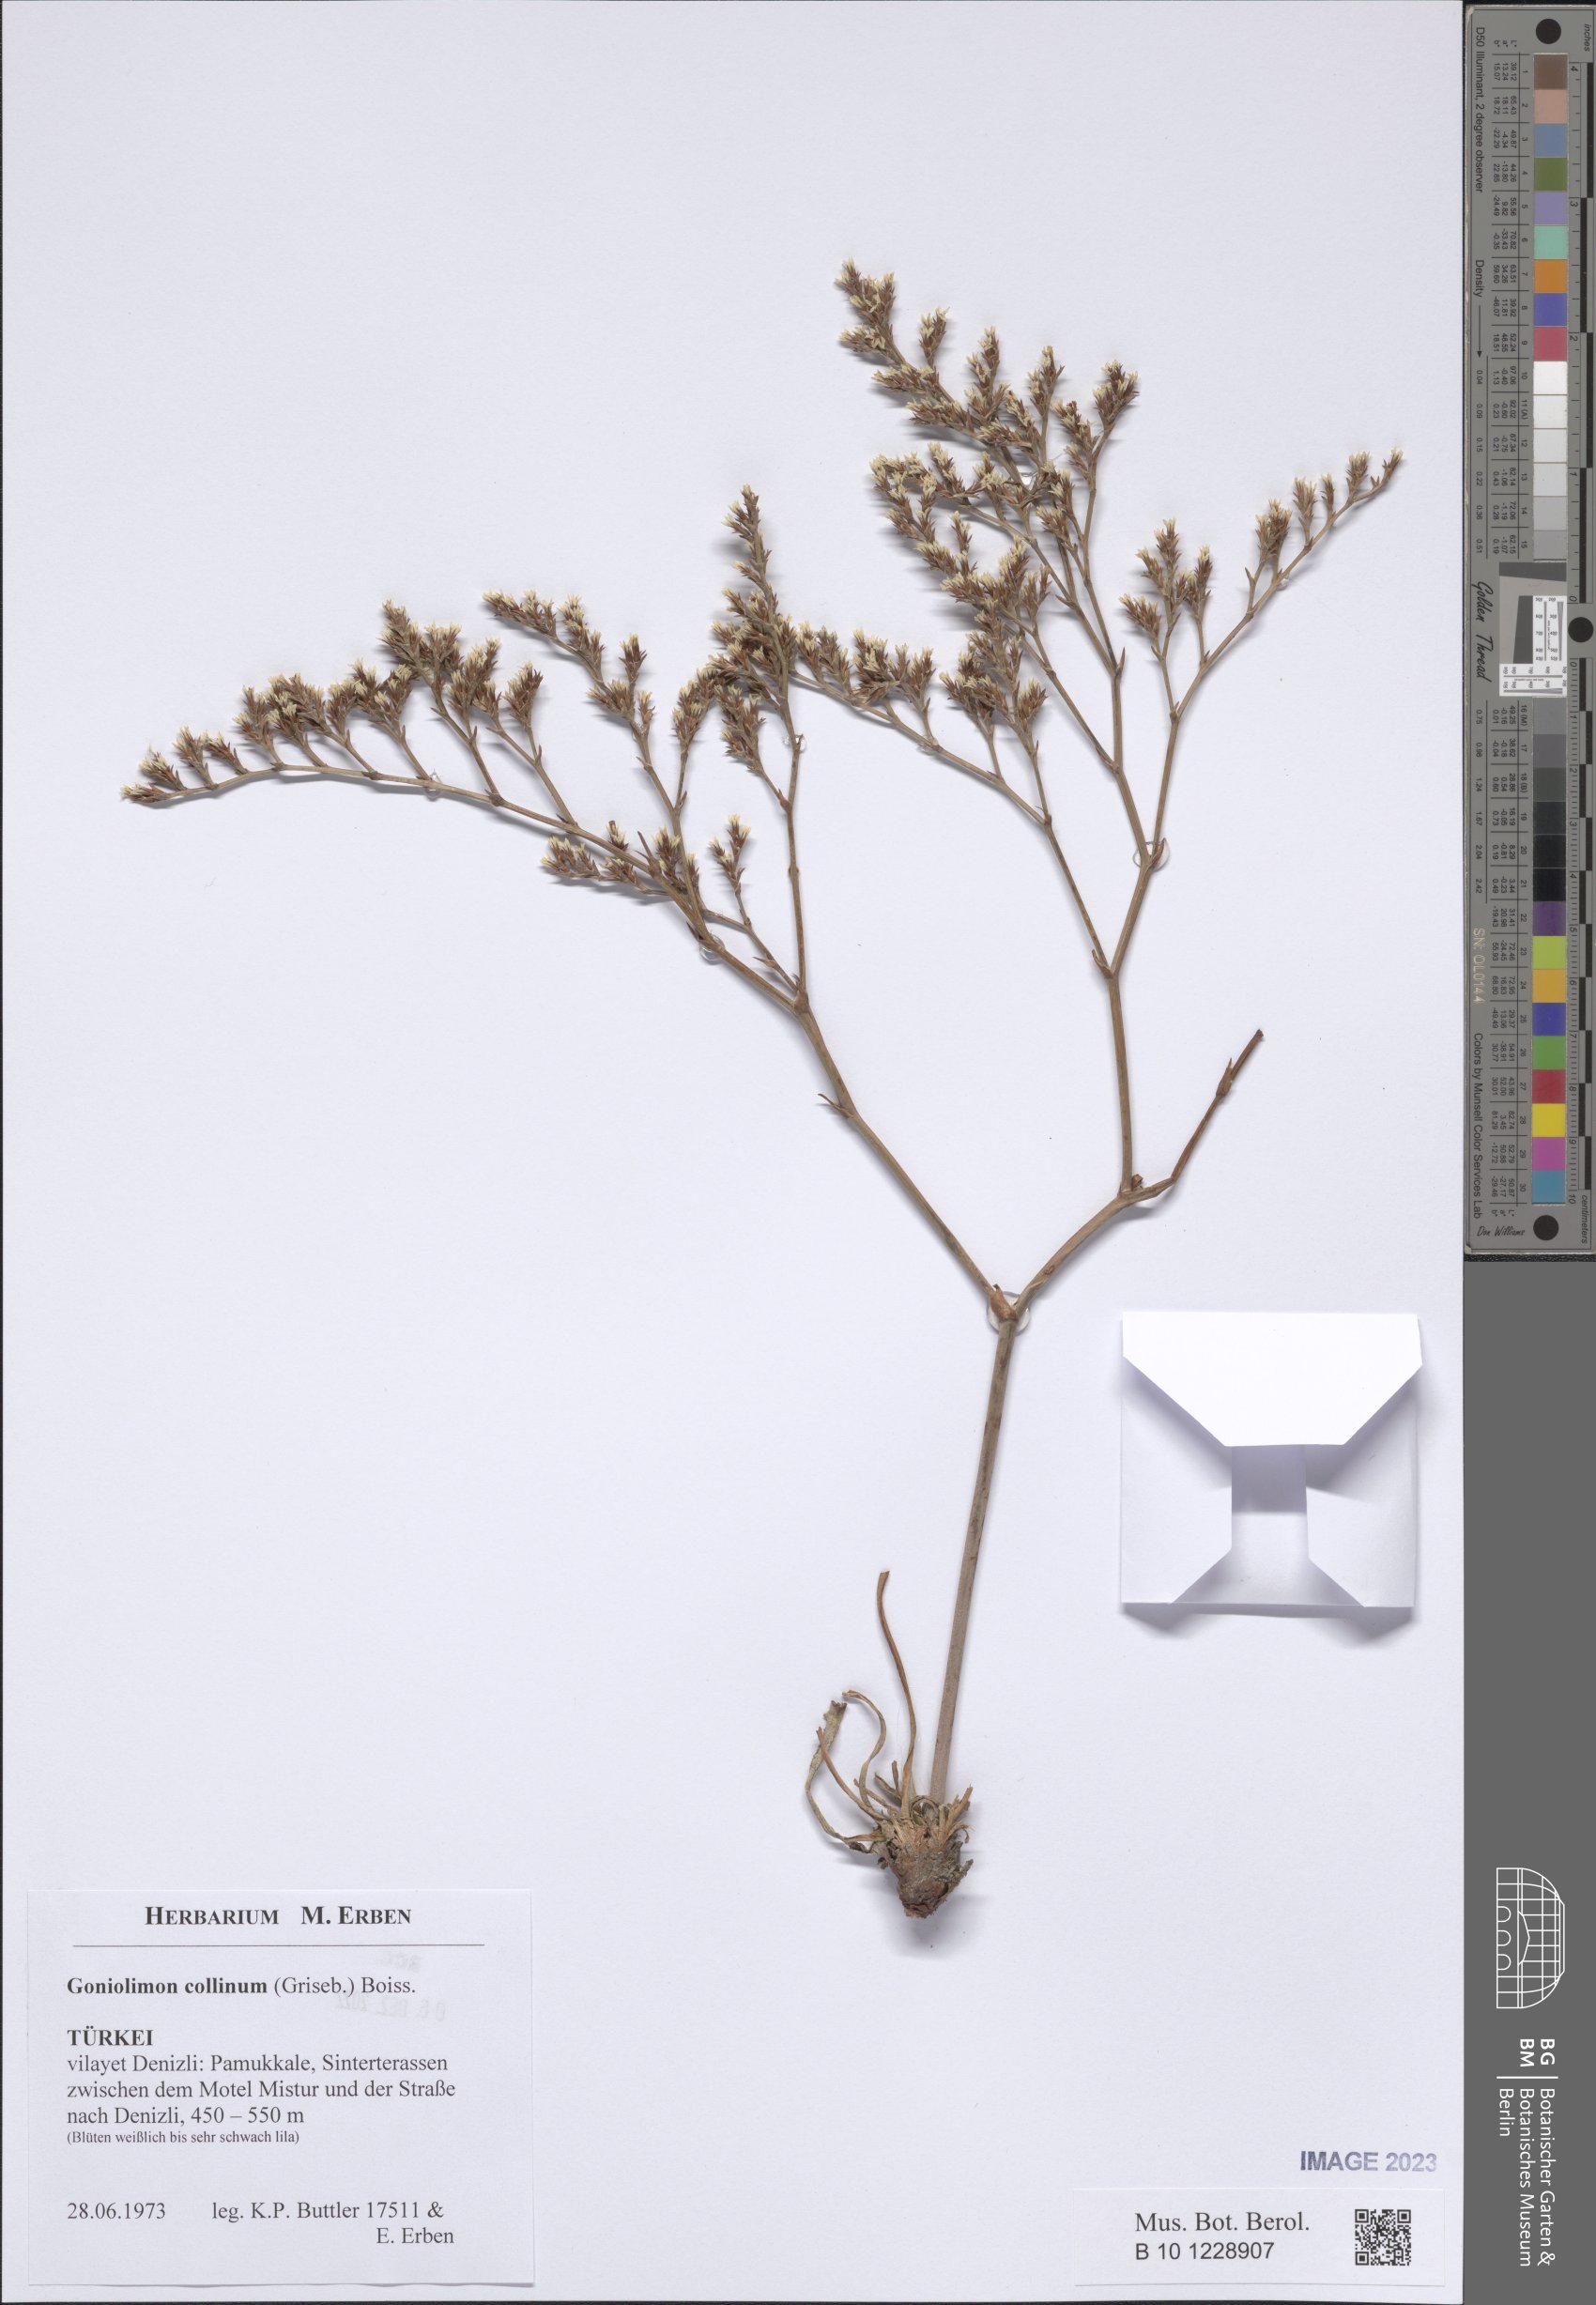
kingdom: Plantae
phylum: Tracheophyta
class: Magnoliopsida
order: Caryophyllales
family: Plumbaginaceae
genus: Goniolimon
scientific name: Goniolimon incanum
